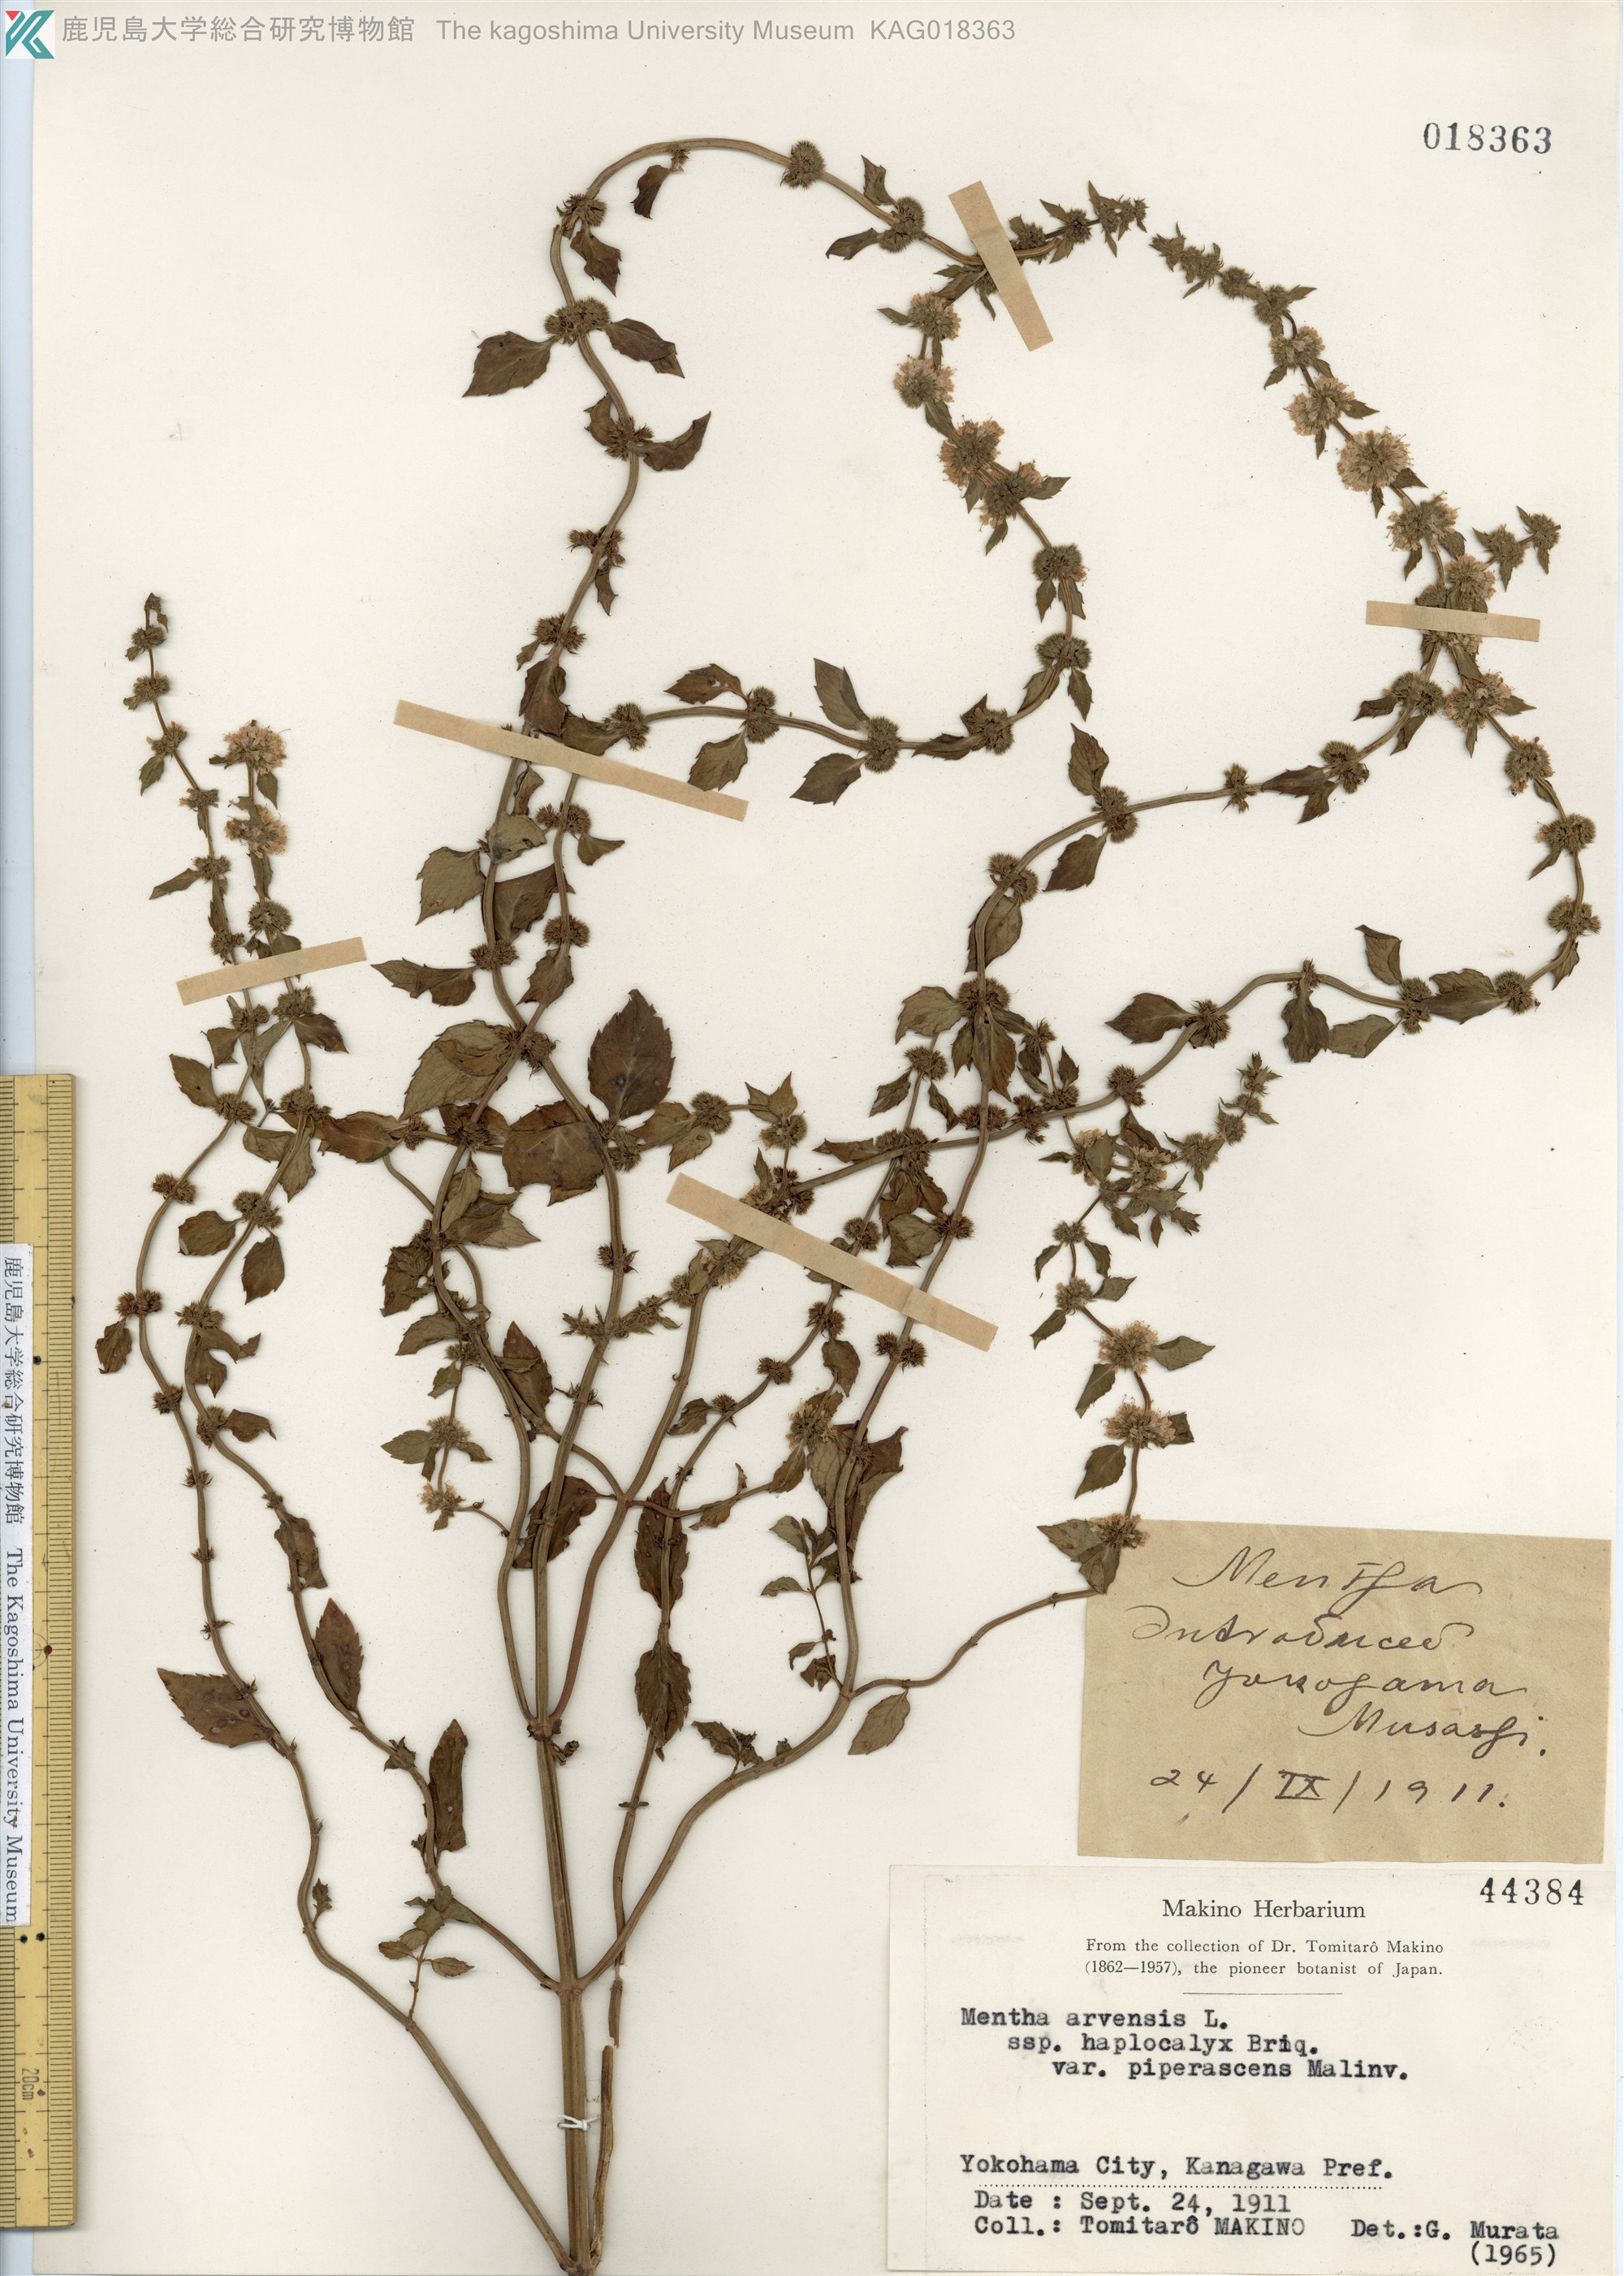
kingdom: Plantae
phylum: Tracheophyta
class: Magnoliopsida
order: Lamiales
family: Lamiaceae
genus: Mentha
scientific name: Mentha canadensis
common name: ハッカ
